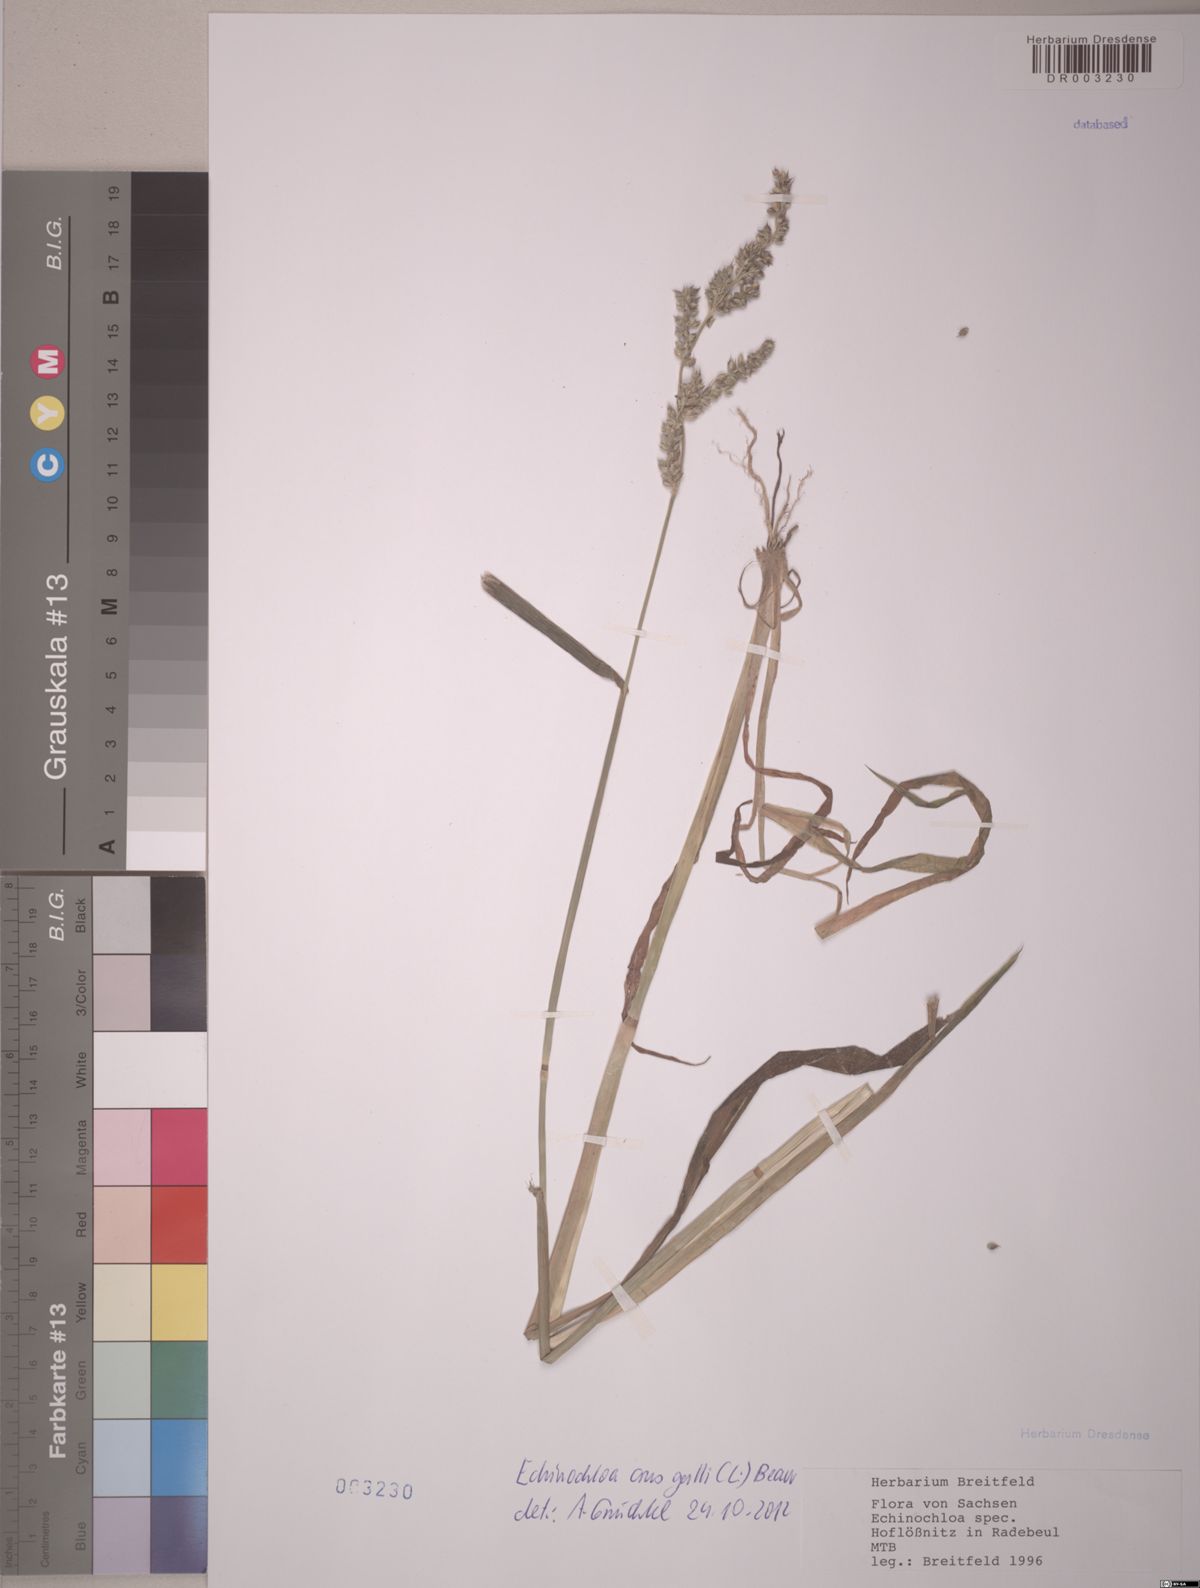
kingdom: Plantae
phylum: Tracheophyta
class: Liliopsida
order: Poales
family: Poaceae
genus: Echinochloa
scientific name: Echinochloa crus-galli
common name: Cockspur
